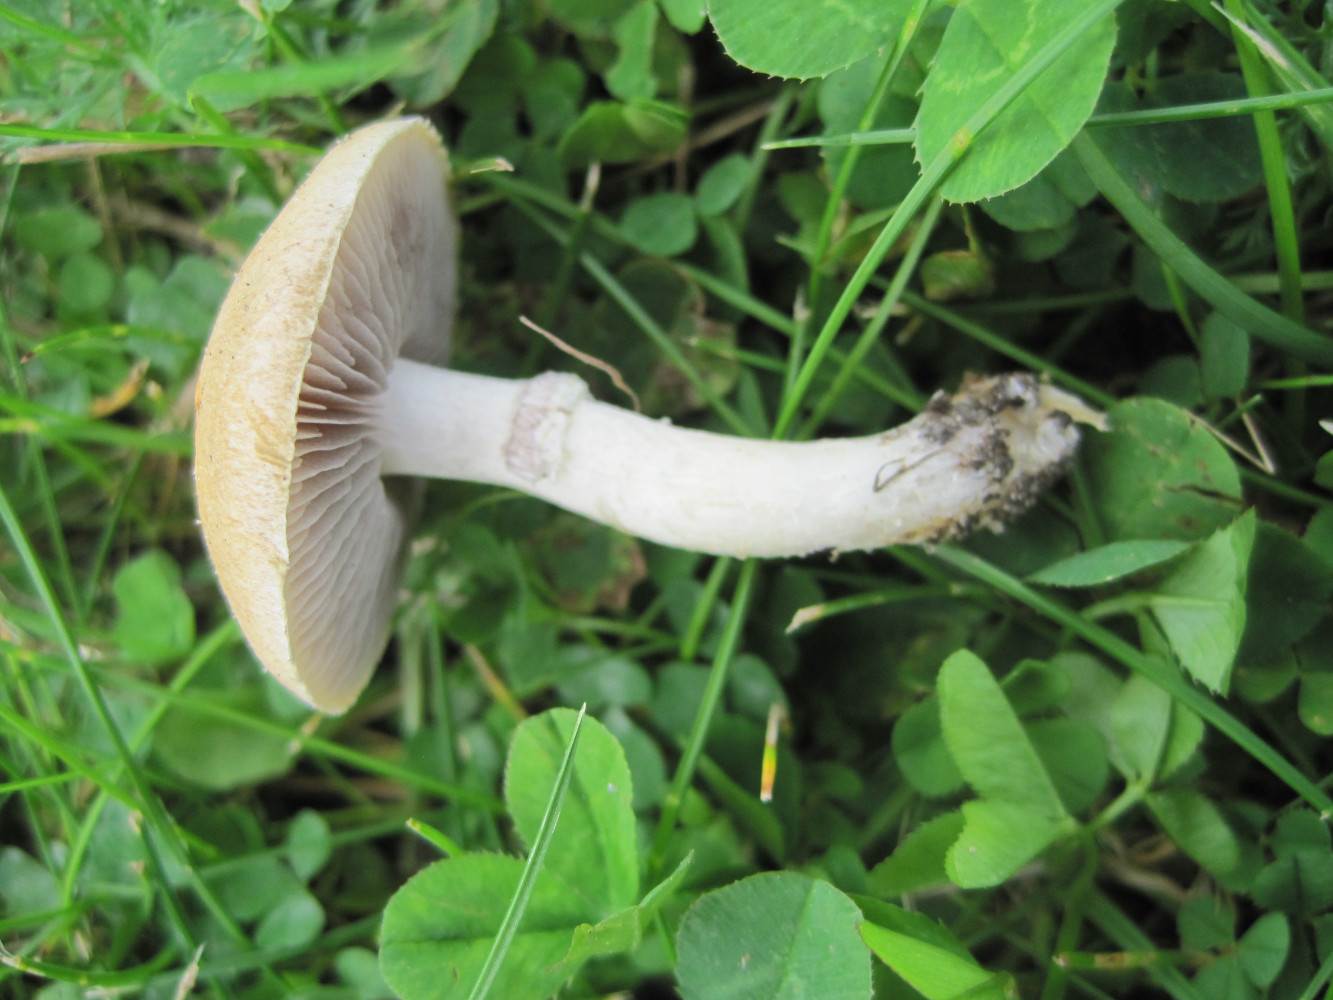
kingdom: Fungi
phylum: Basidiomycota
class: Agaricomycetes
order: Agaricales
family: Hymenogastraceae
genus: Psilocybe
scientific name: Psilocybe coronilla
